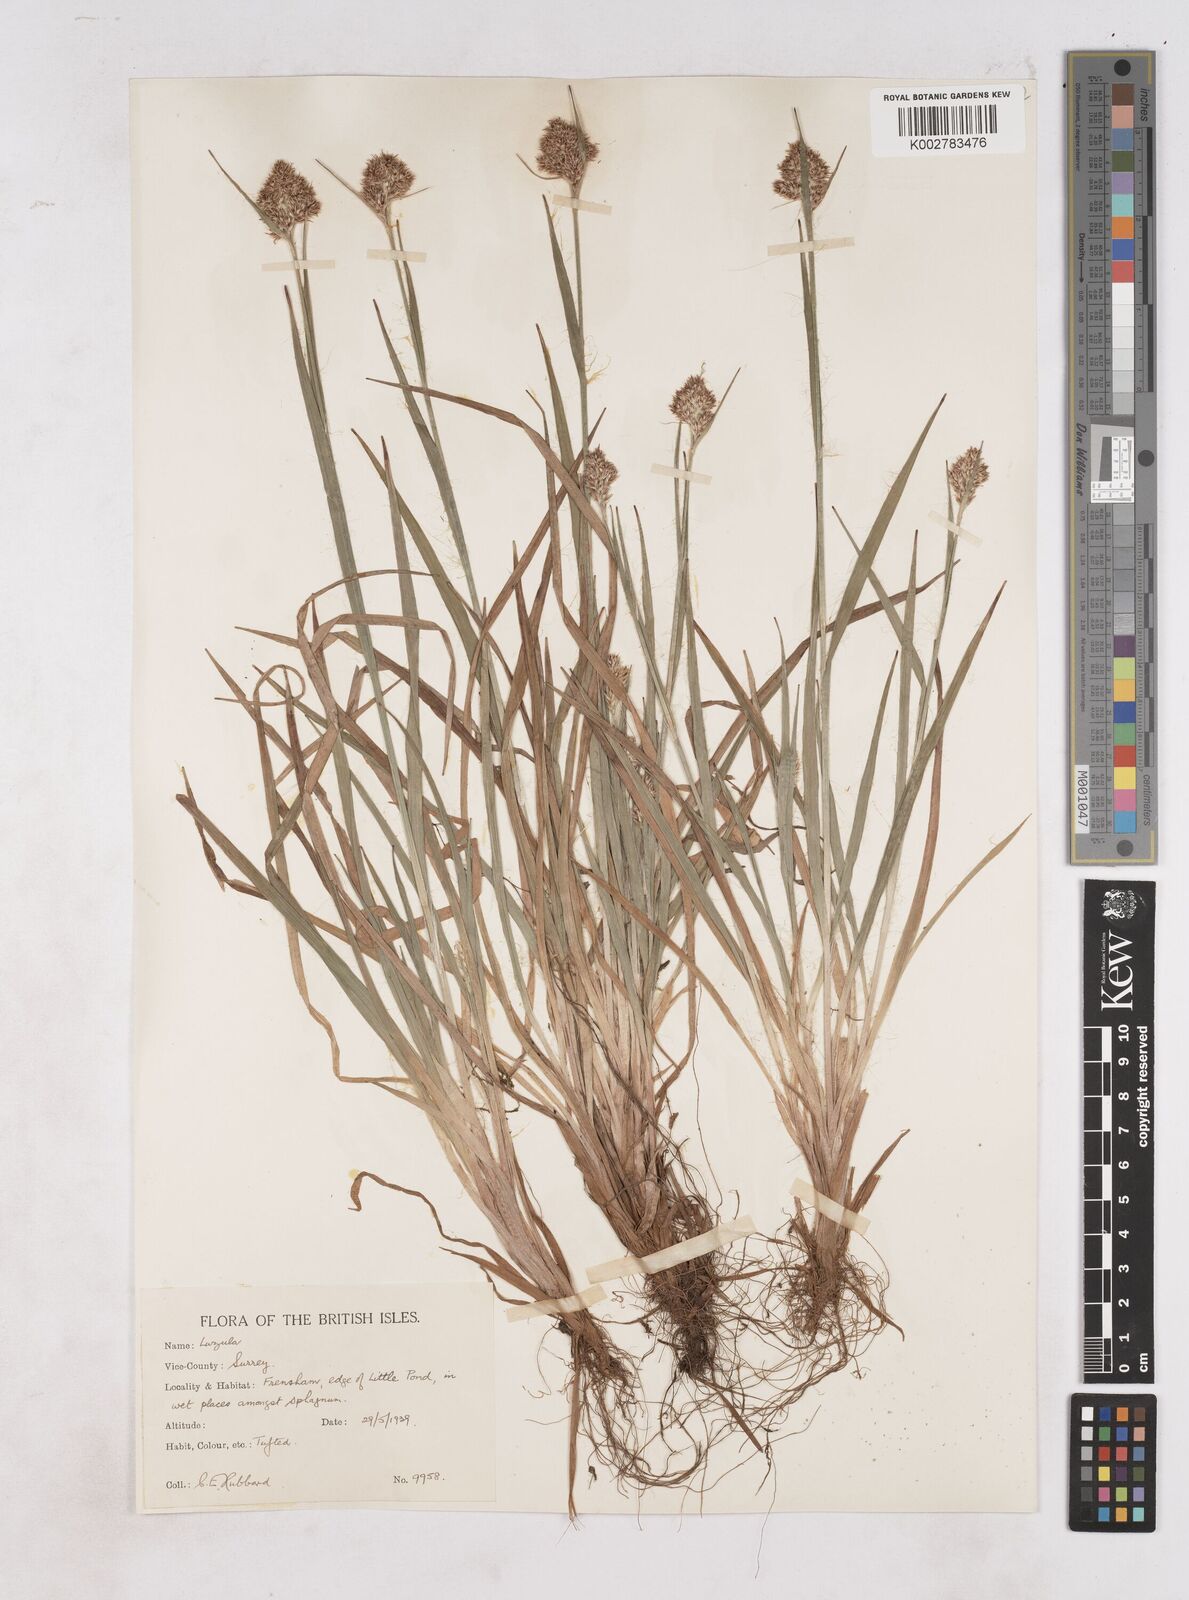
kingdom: Plantae
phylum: Tracheophyta
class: Liliopsida
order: Poales
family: Juncaceae
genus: Luzula
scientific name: Luzula campestris
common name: Field wood-rush
